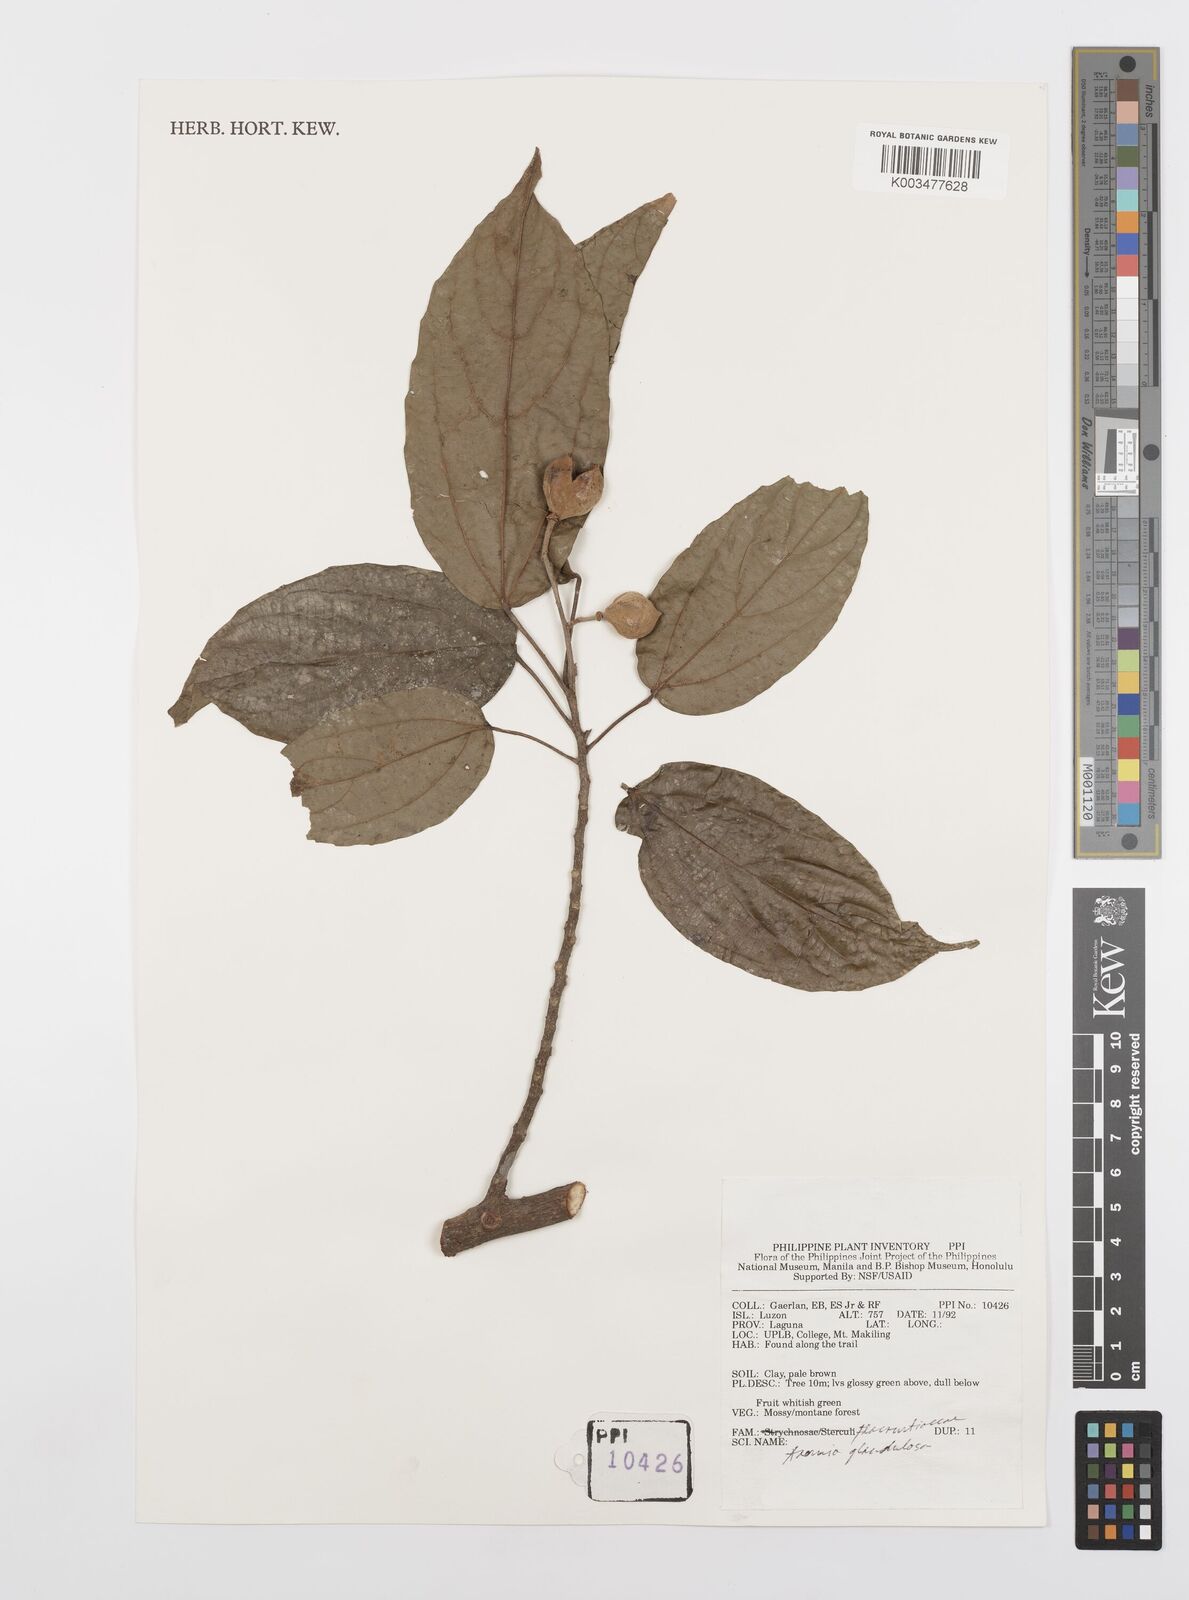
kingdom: Plantae
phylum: Tracheophyta
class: Magnoliopsida
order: Malpighiales
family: Achariaceae
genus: Ahernia
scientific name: Ahernia glandulosa
